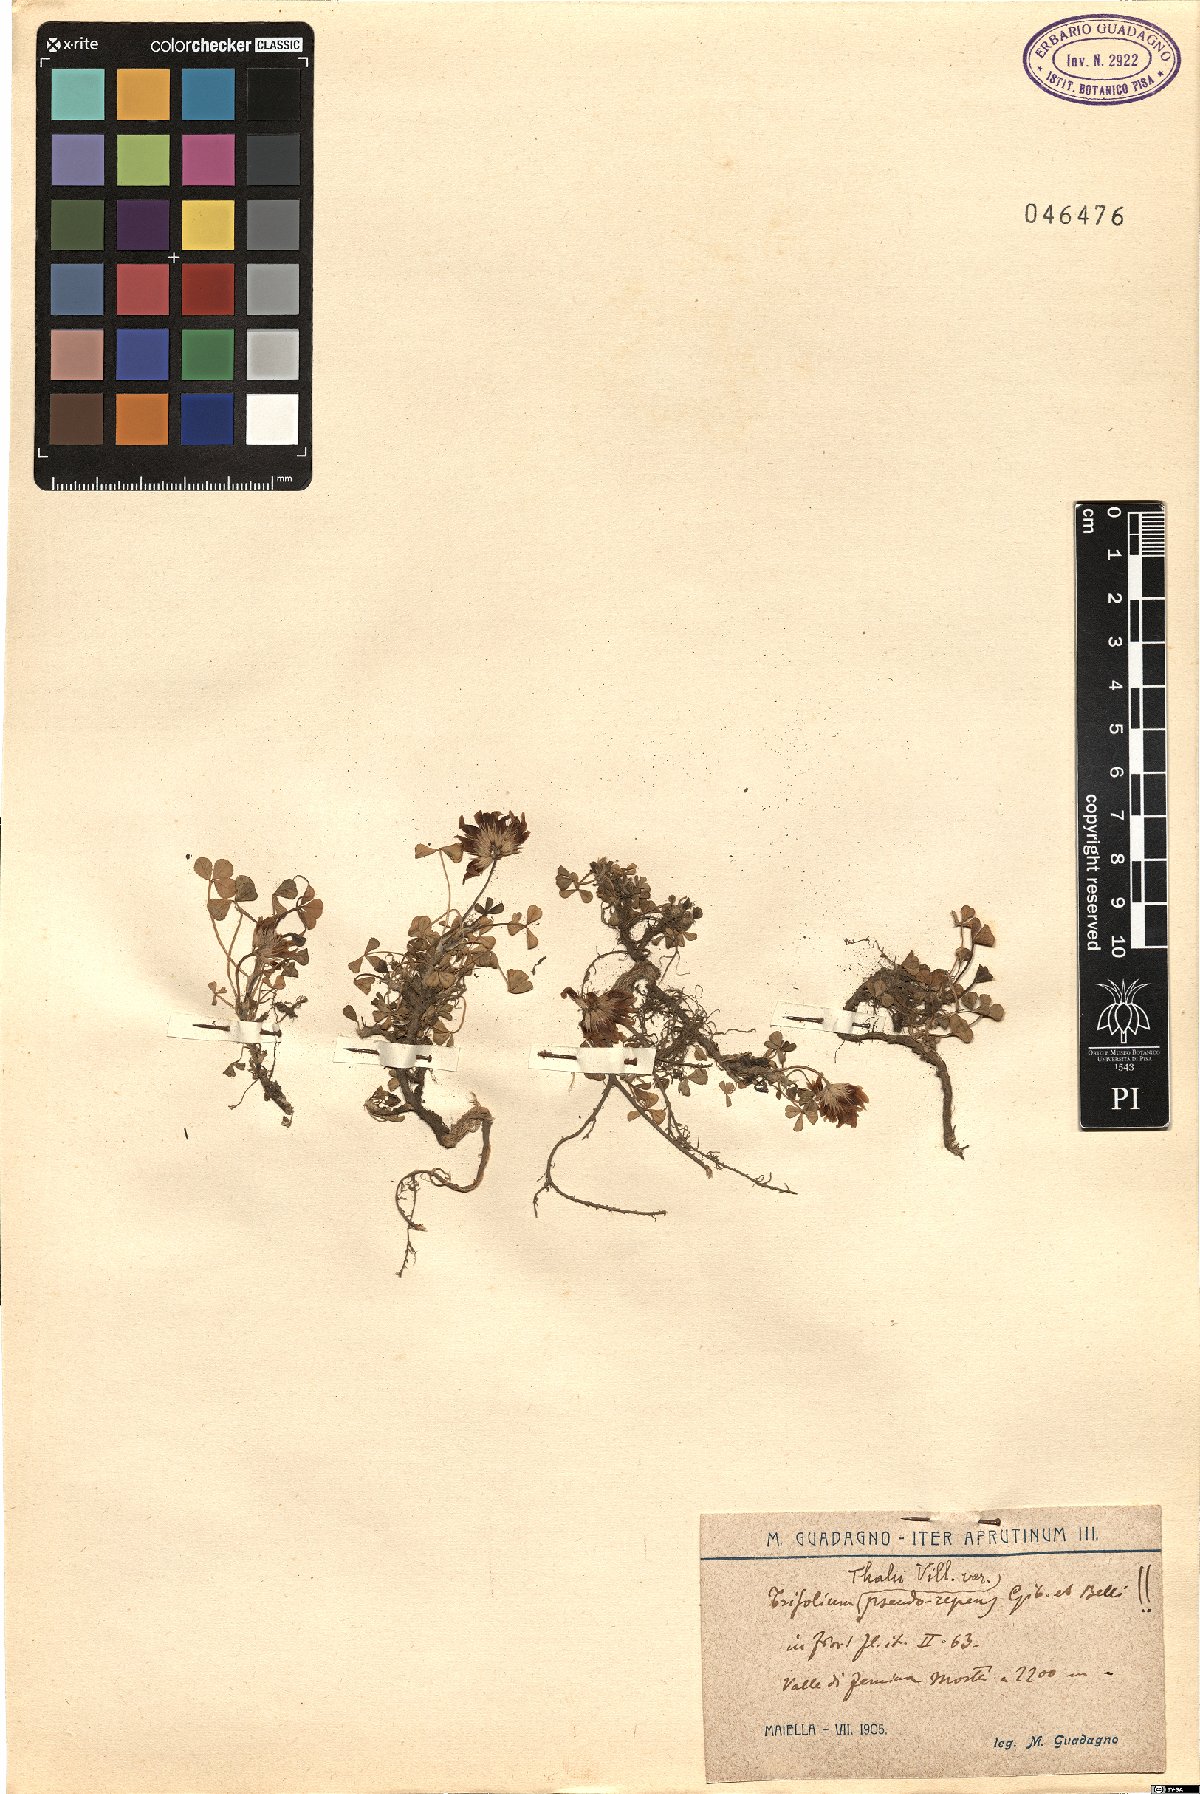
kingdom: Plantae
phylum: Tracheophyta
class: Magnoliopsida
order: Fabales
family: Fabaceae
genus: Trifolium
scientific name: Trifolium thalii
